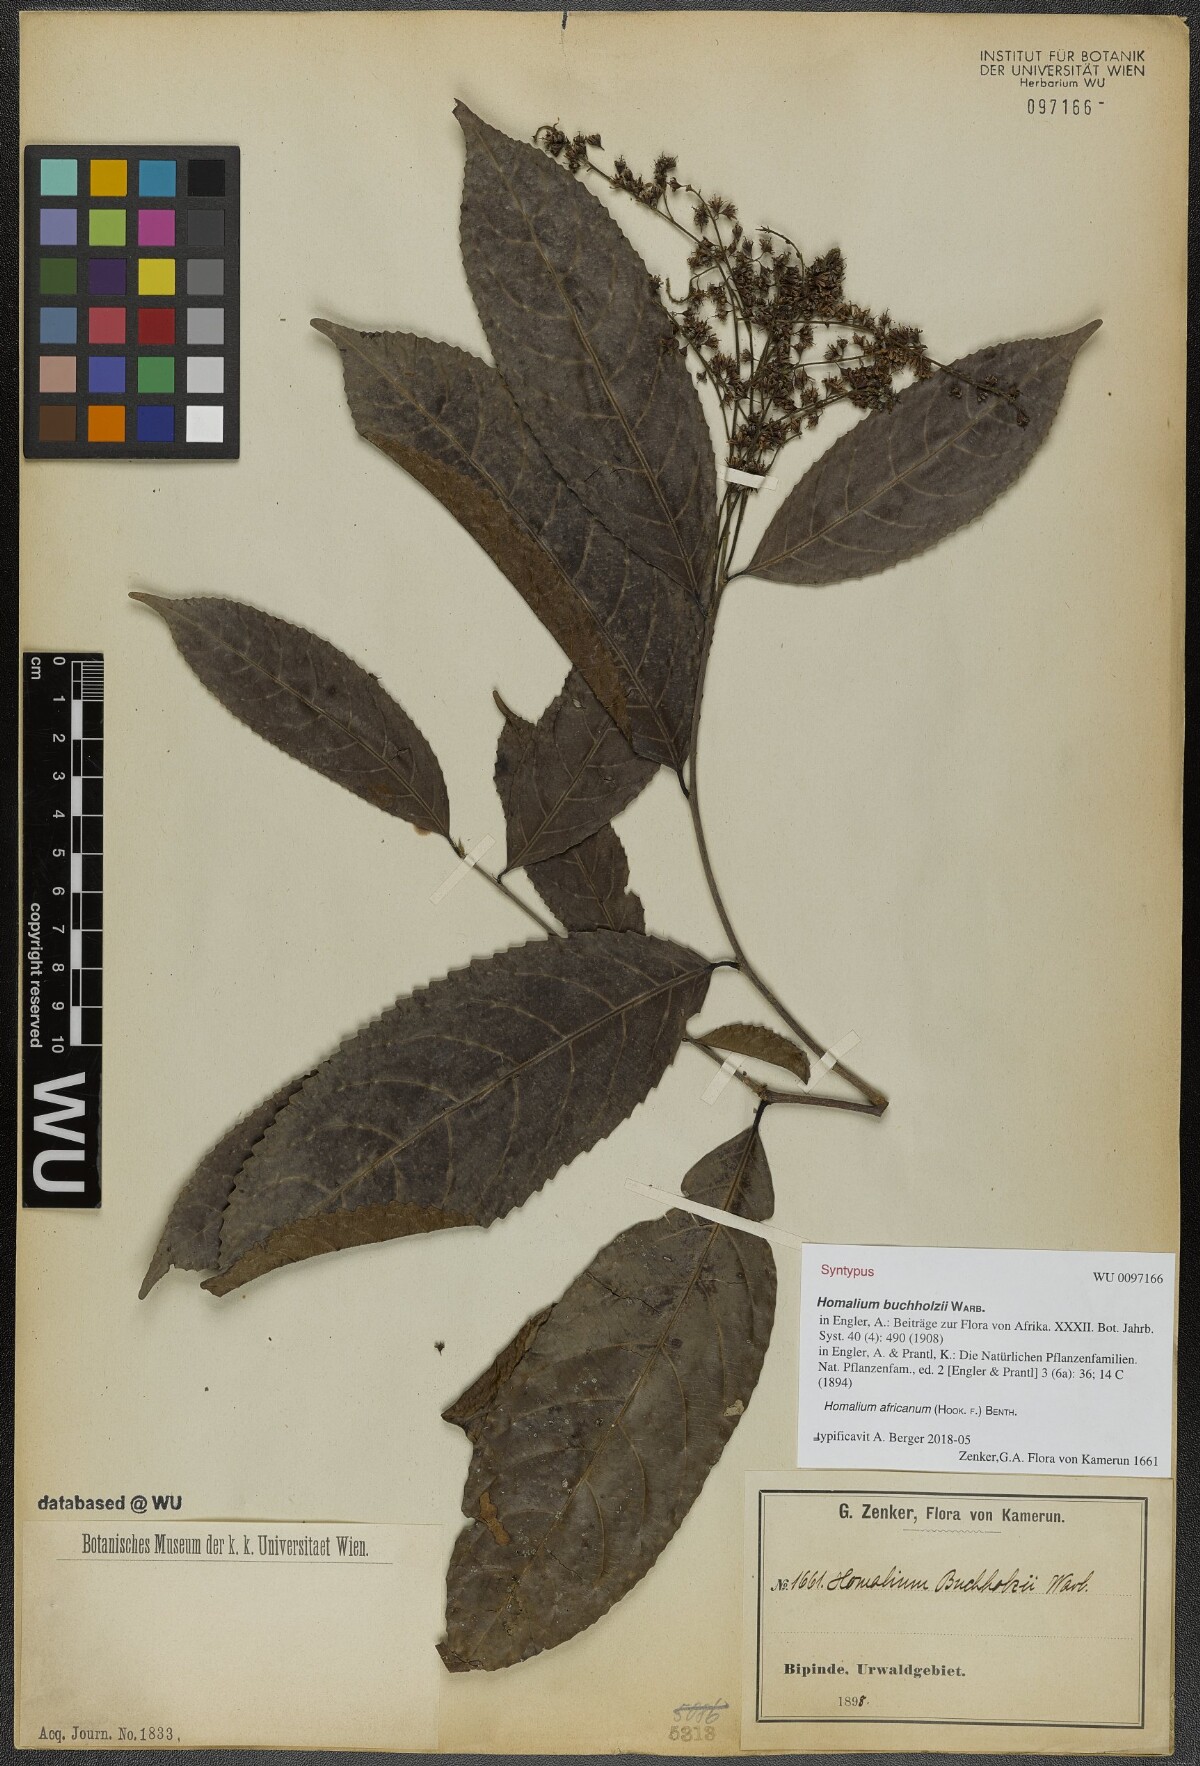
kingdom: Plantae
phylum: Tracheophyta
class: Magnoliopsida
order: Malpighiales
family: Salicaceae
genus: Homalium
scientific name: Homalium africanum
